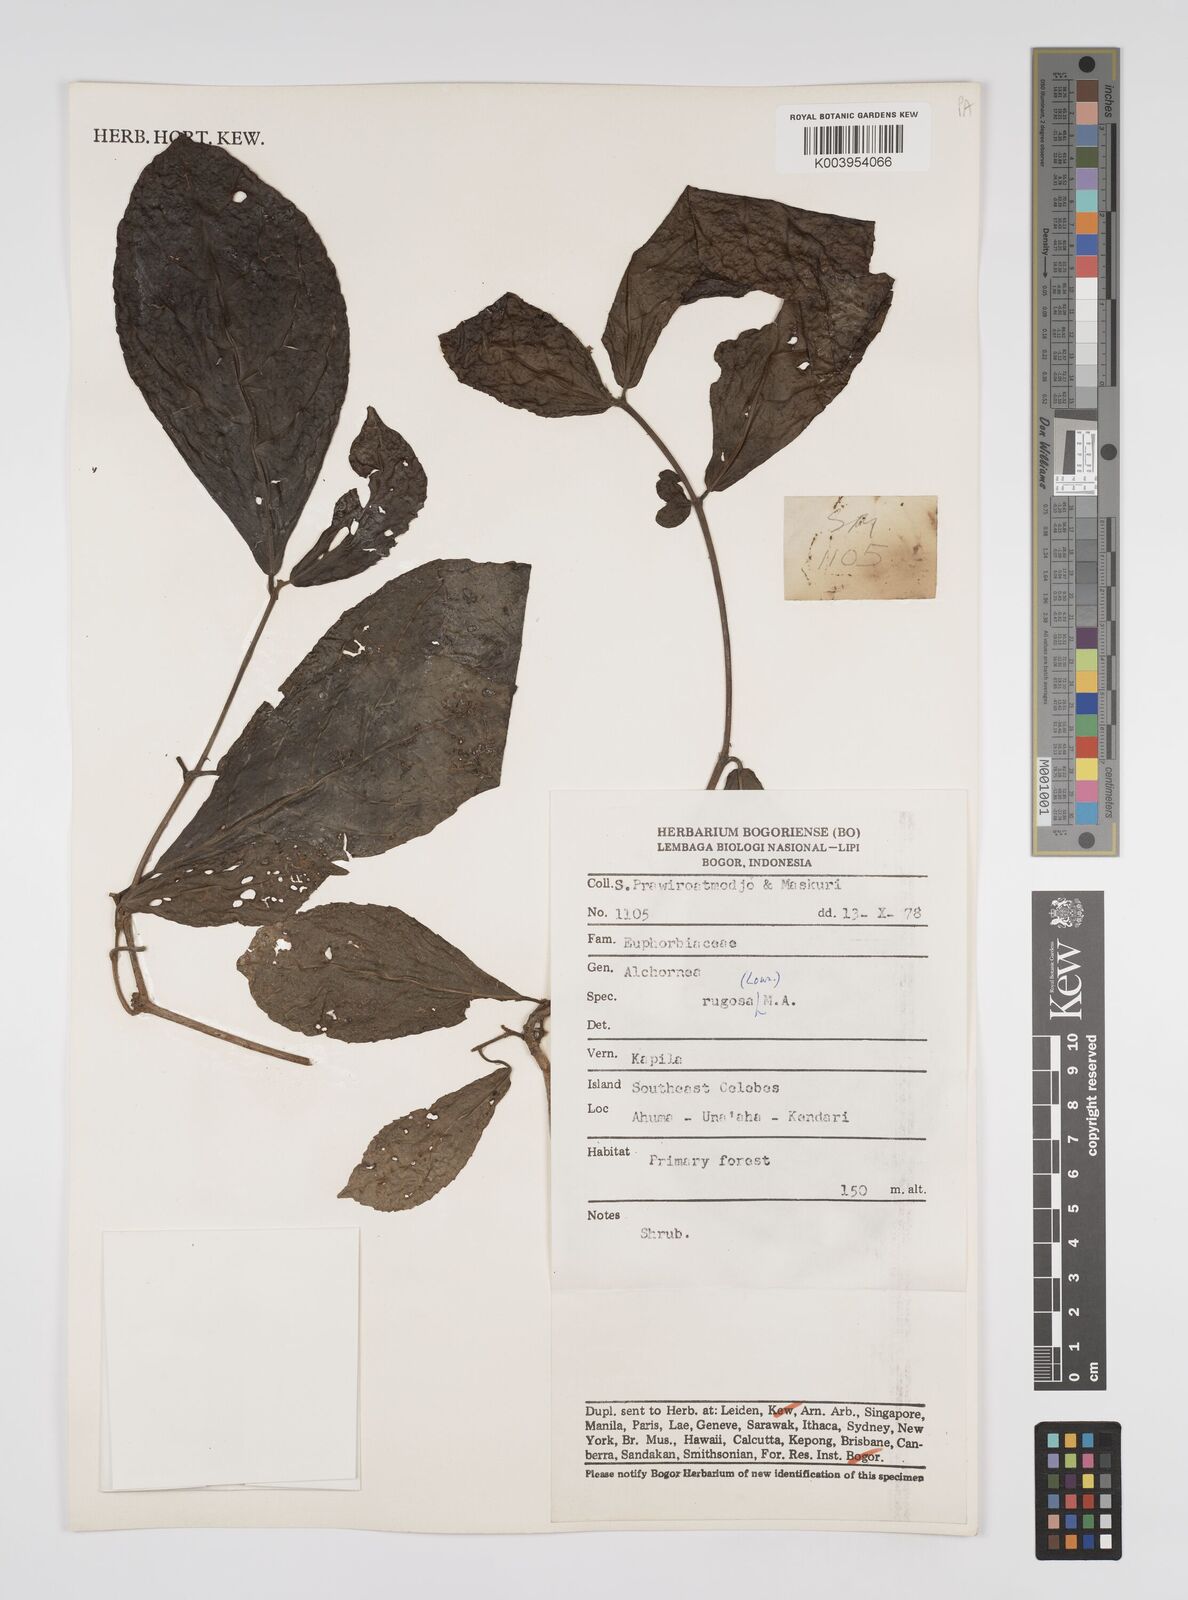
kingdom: Plantae
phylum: Tracheophyta
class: Magnoliopsida
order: Malpighiales
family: Euphorbiaceae
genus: Alchornea
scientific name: Alchornea rugosa
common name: Alchorntree
